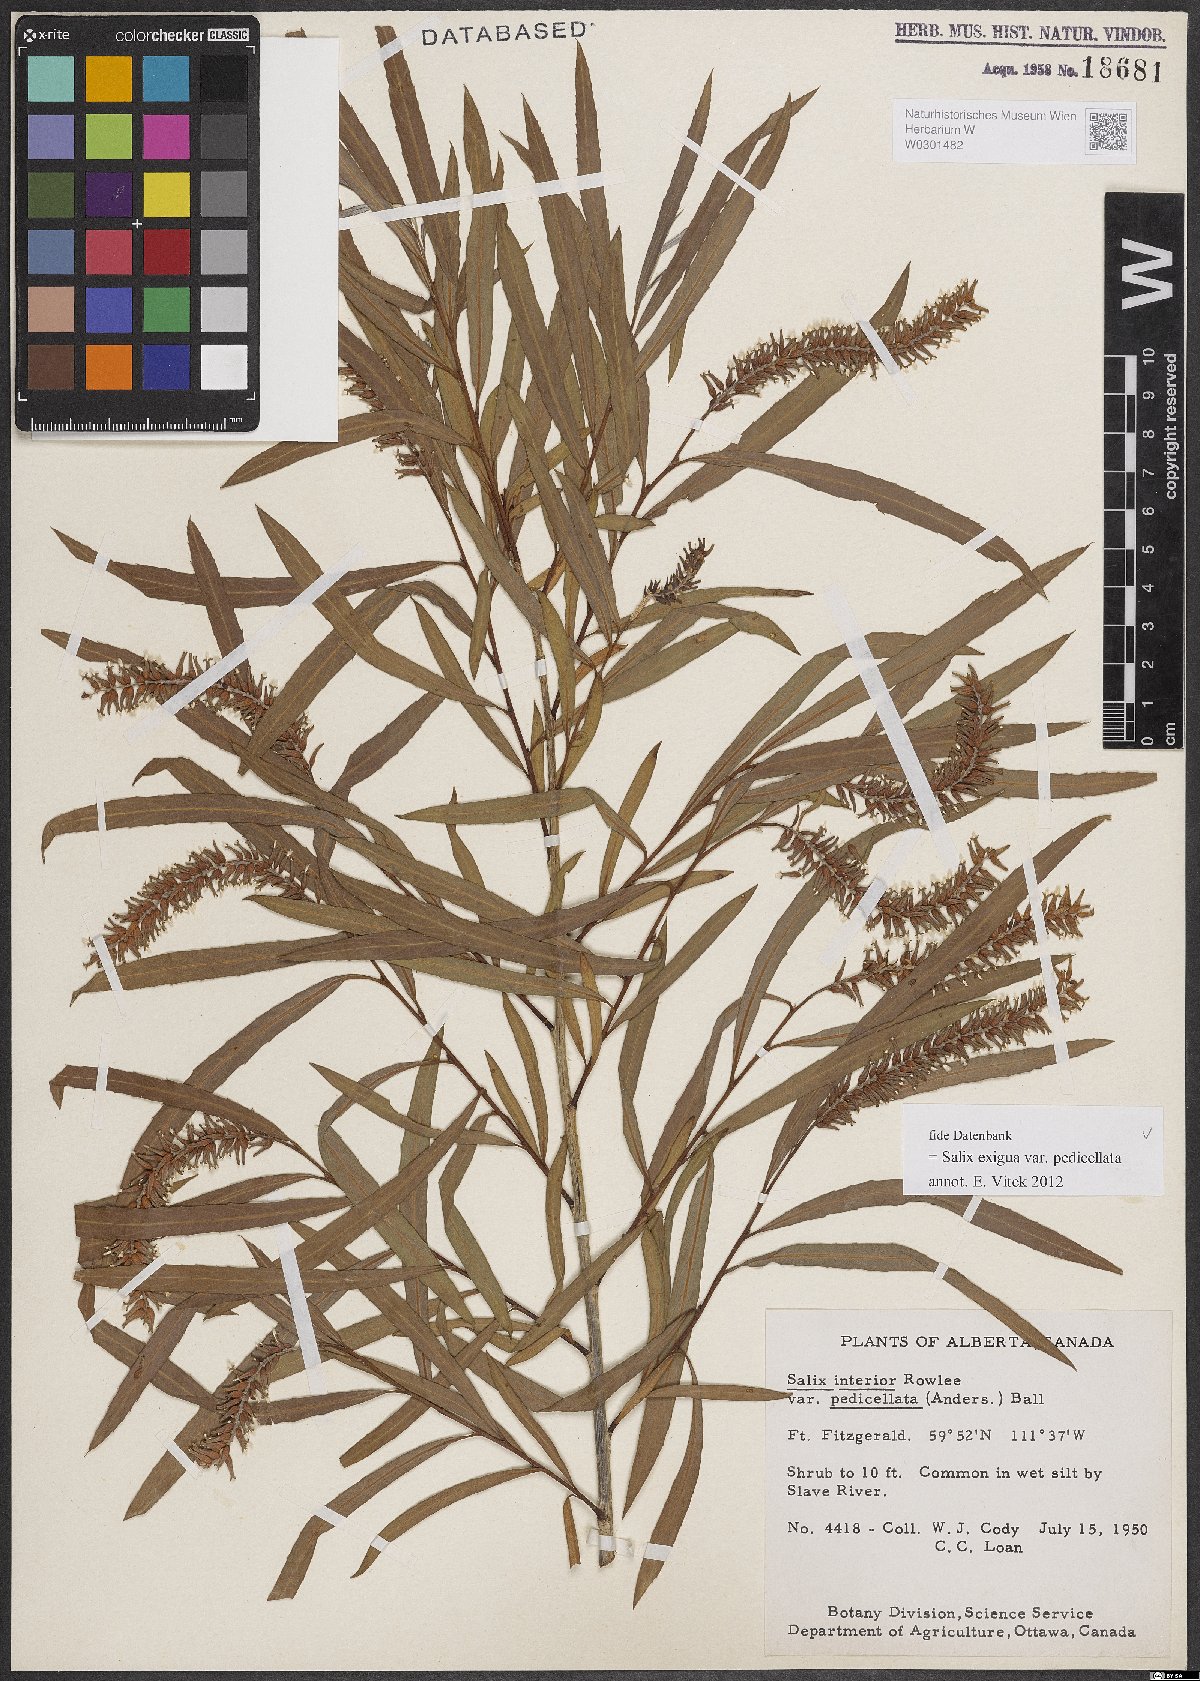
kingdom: Plantae
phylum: Tracheophyta
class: Magnoliopsida
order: Malpighiales
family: Salicaceae
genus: Salix
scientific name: Salix interior
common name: Sandbar willow
